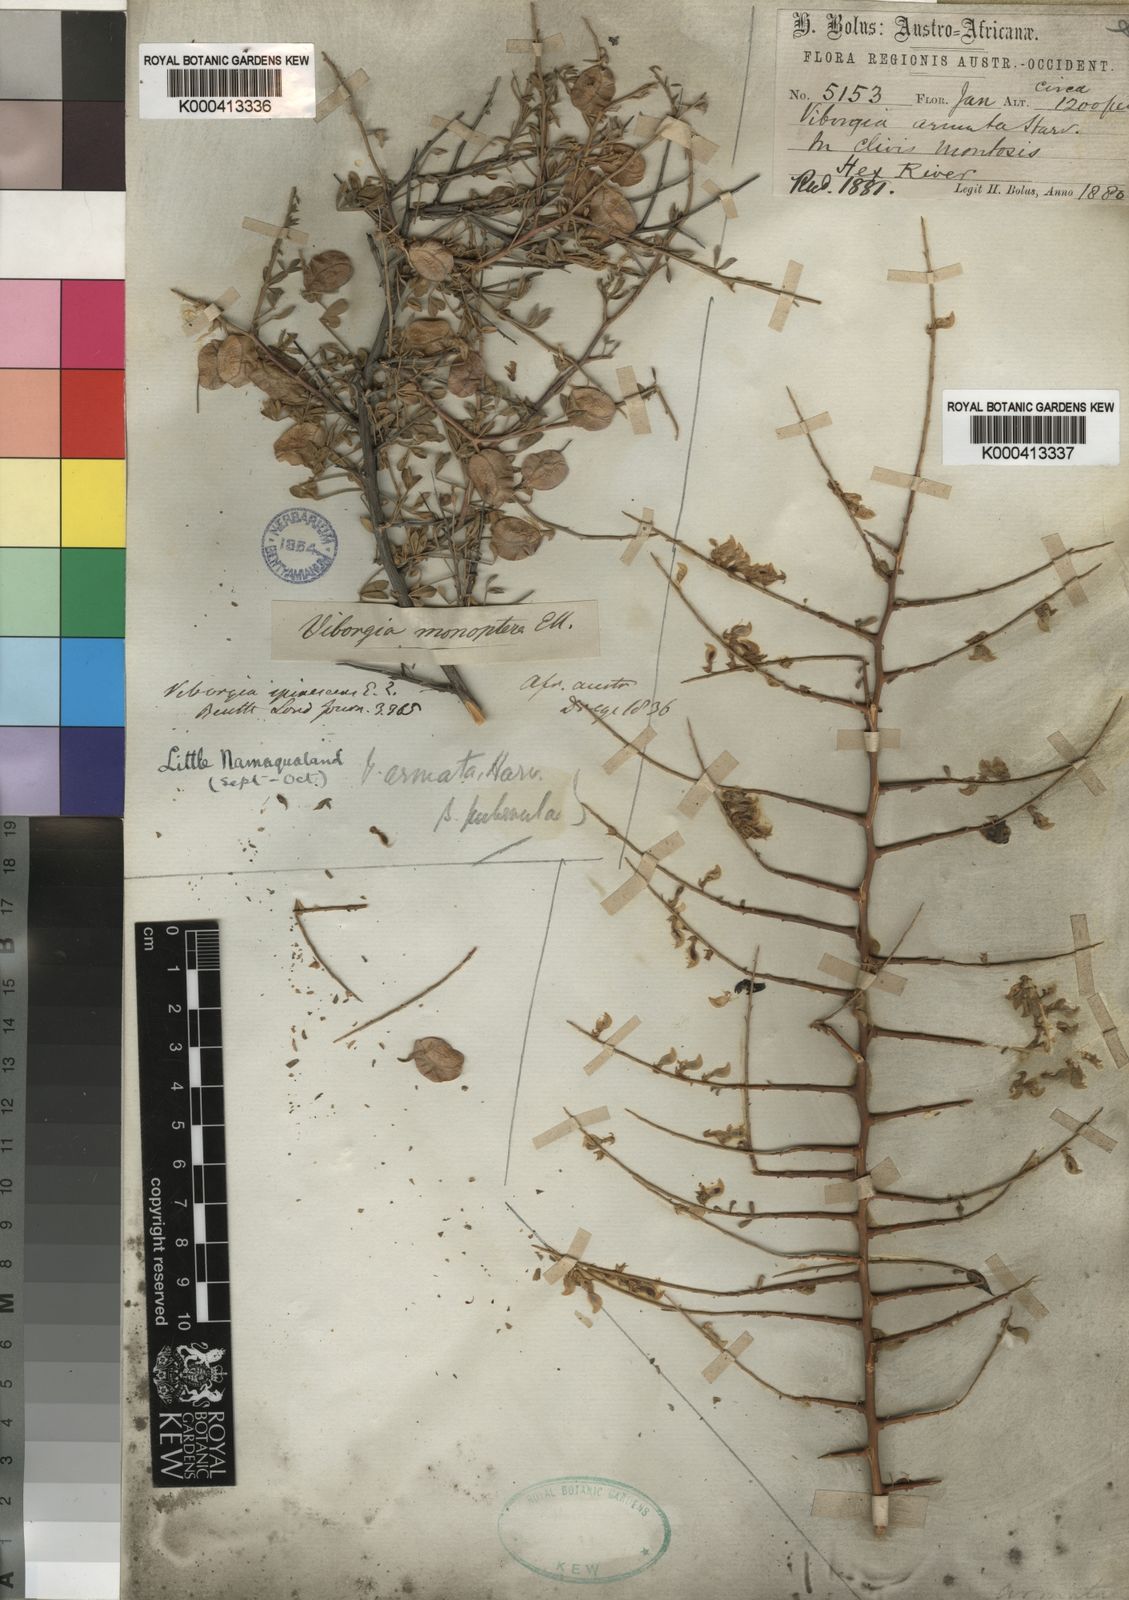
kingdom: Plantae
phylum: Tracheophyta
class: Magnoliopsida
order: Fabales
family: Fabaceae
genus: Wiborgia
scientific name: Wiborgia monoptera
